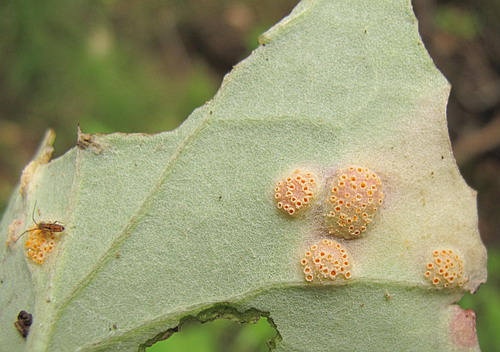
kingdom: Fungi
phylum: Basidiomycota
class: Pucciniomycetes
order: Pucciniales
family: Pucciniaceae
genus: Puccinia
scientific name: Puccinia poarum
